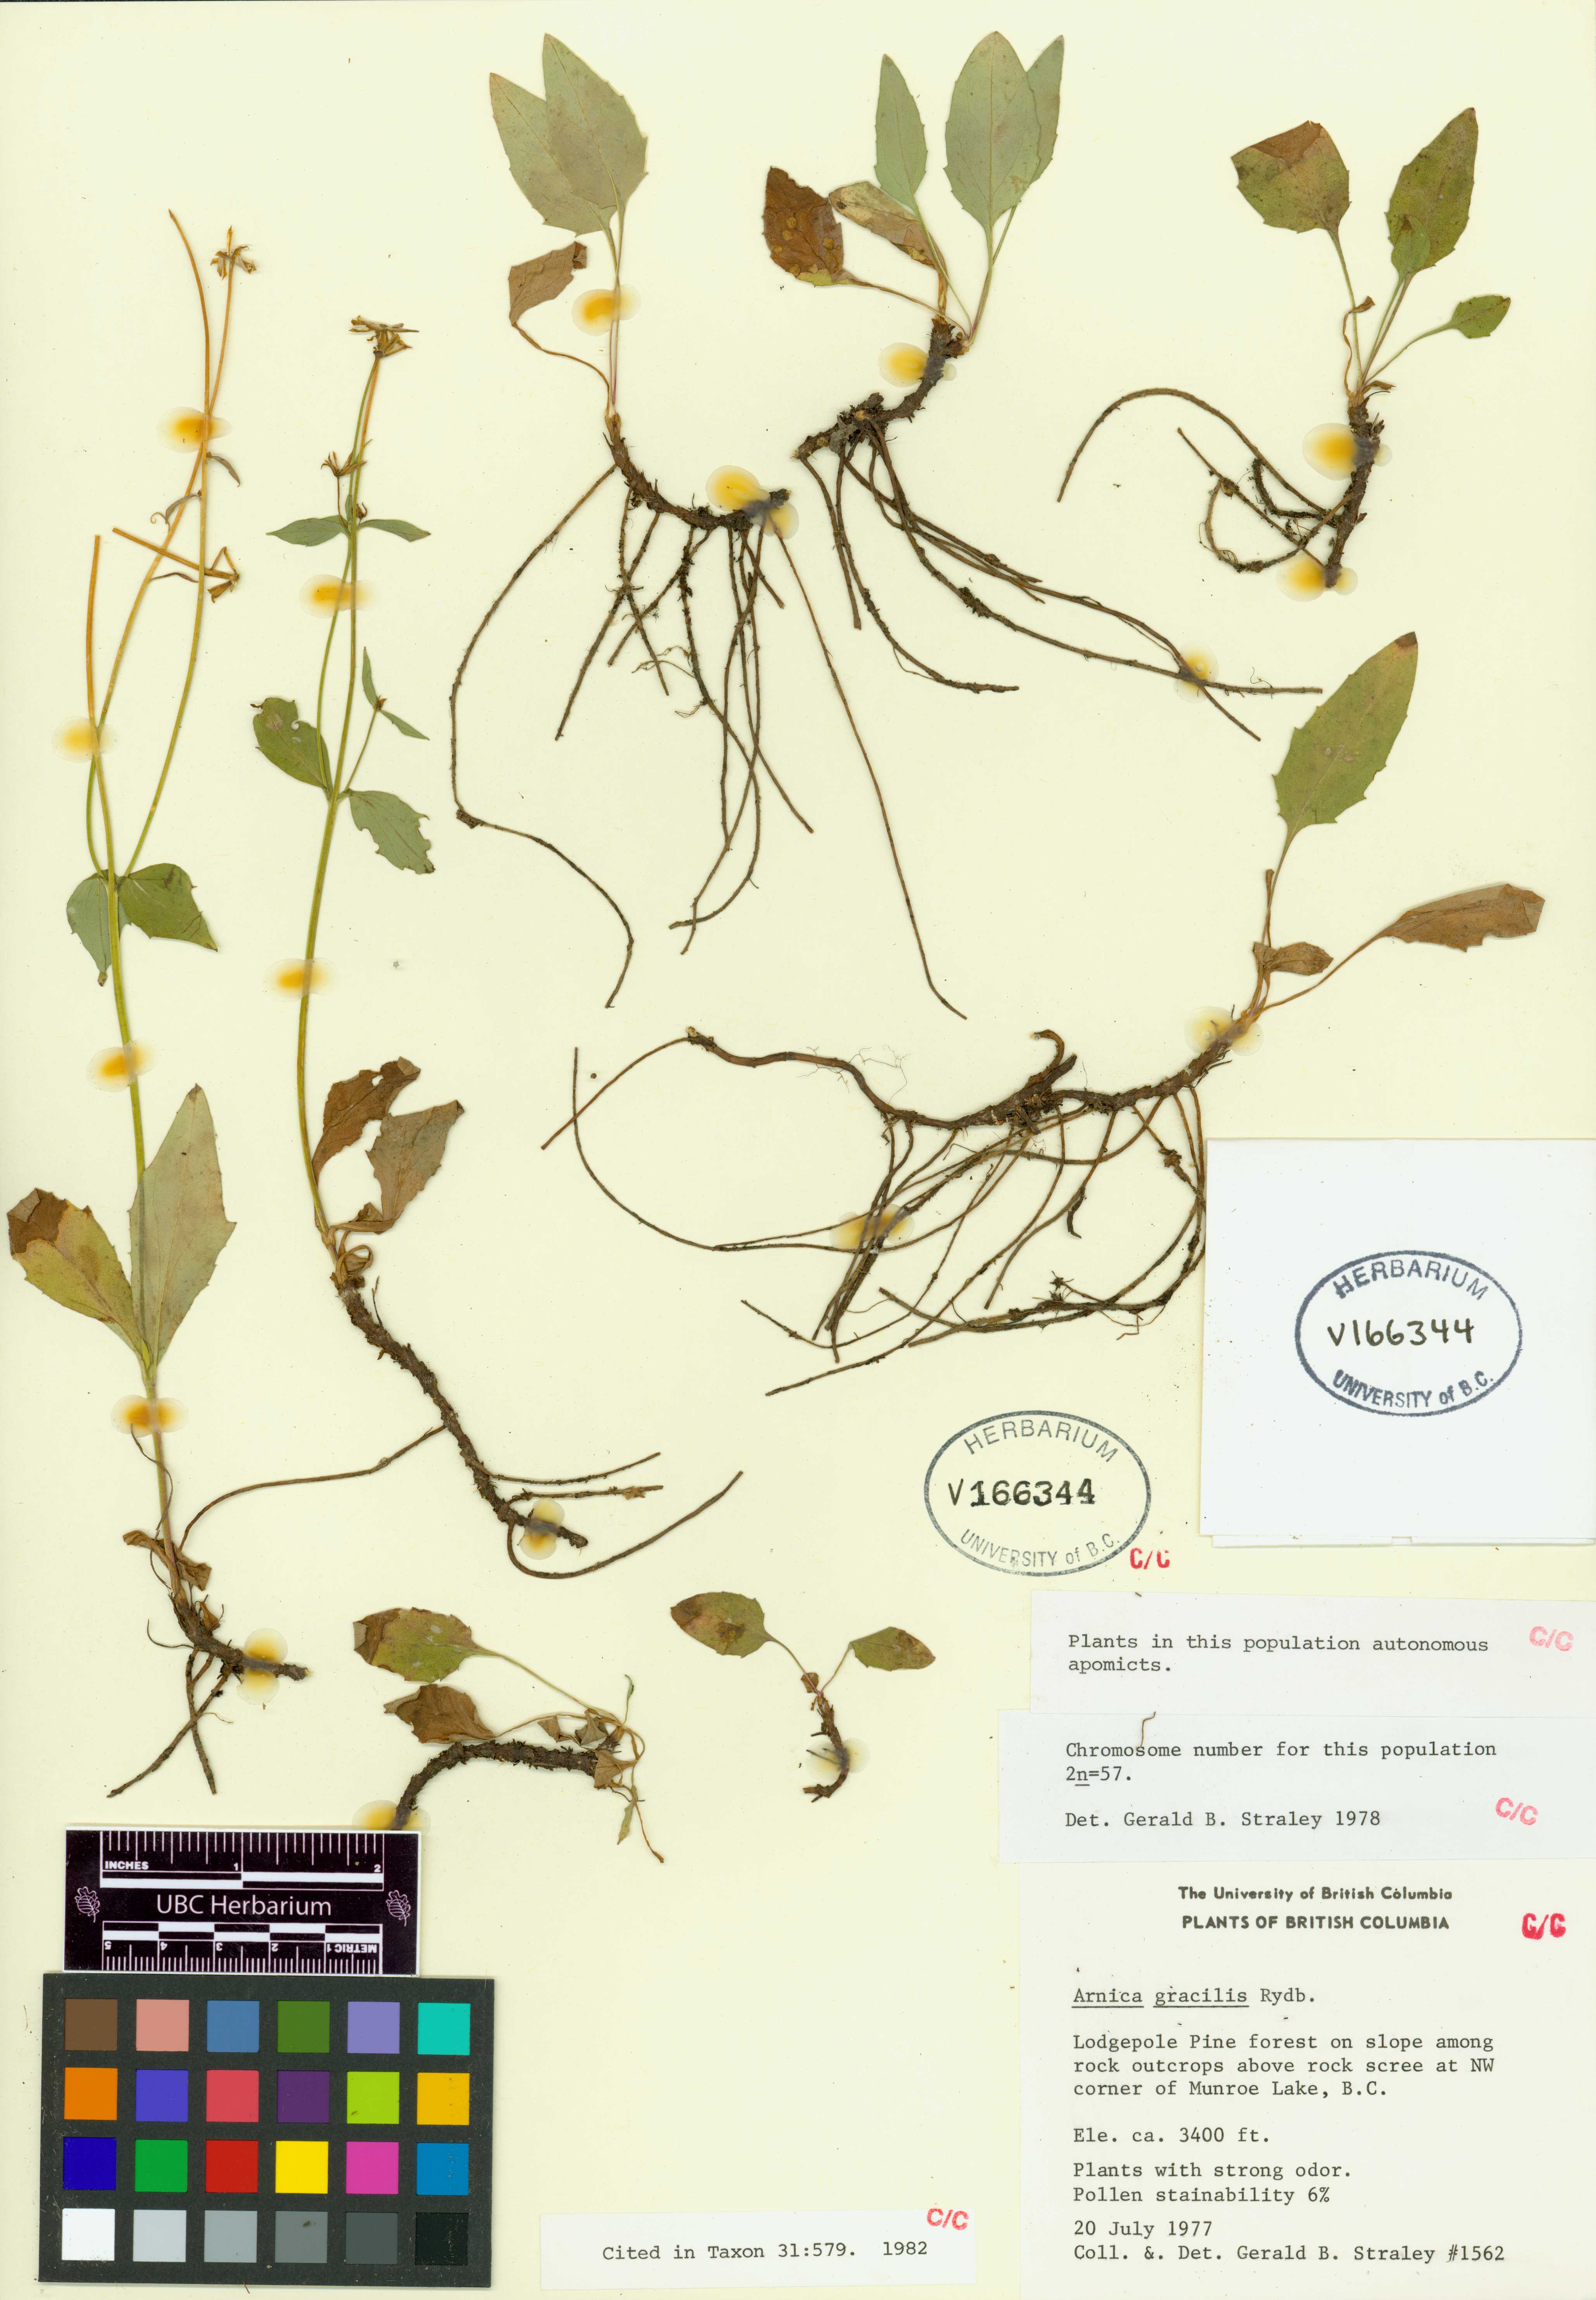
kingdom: Plantae
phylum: Tracheophyta
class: Magnoliopsida
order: Asterales
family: Asteraceae
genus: Arnica
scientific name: Arnica gracilis
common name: Slender arnica
